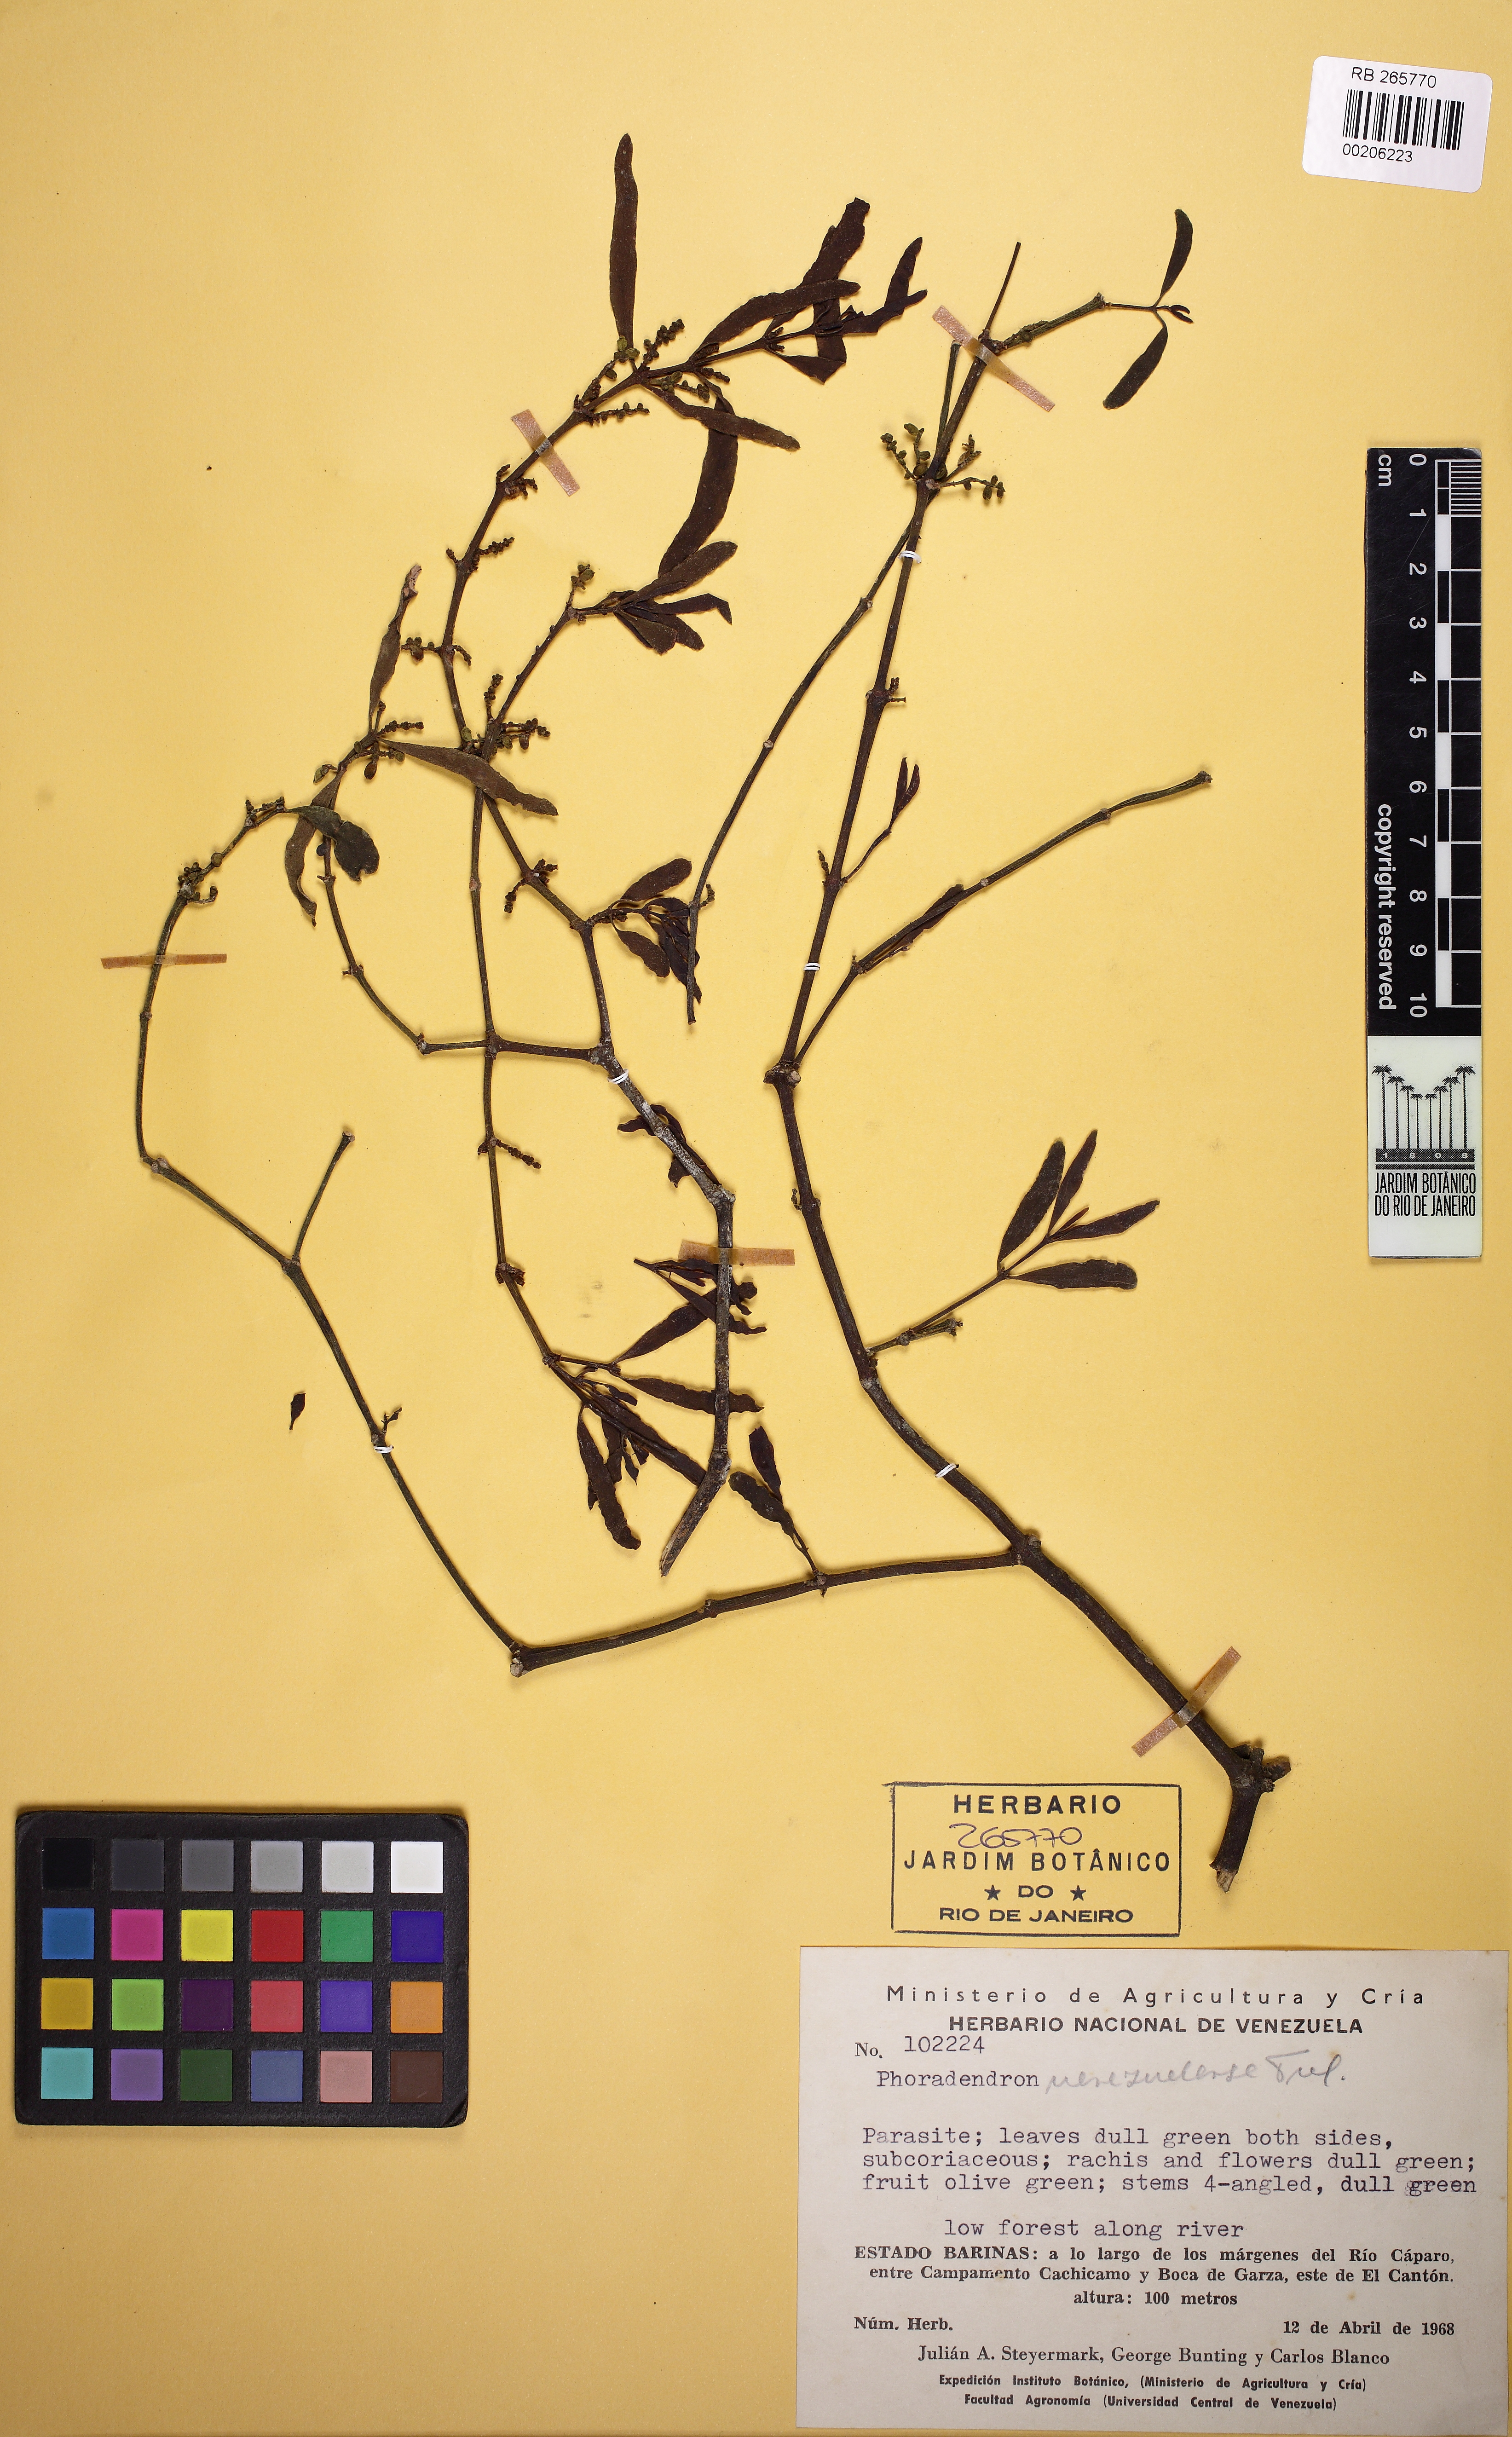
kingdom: Plantae
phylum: Tracheophyta
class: Magnoliopsida
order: Santalales
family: Viscaceae
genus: Phoradendron
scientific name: Phoradendron quadrangulare
